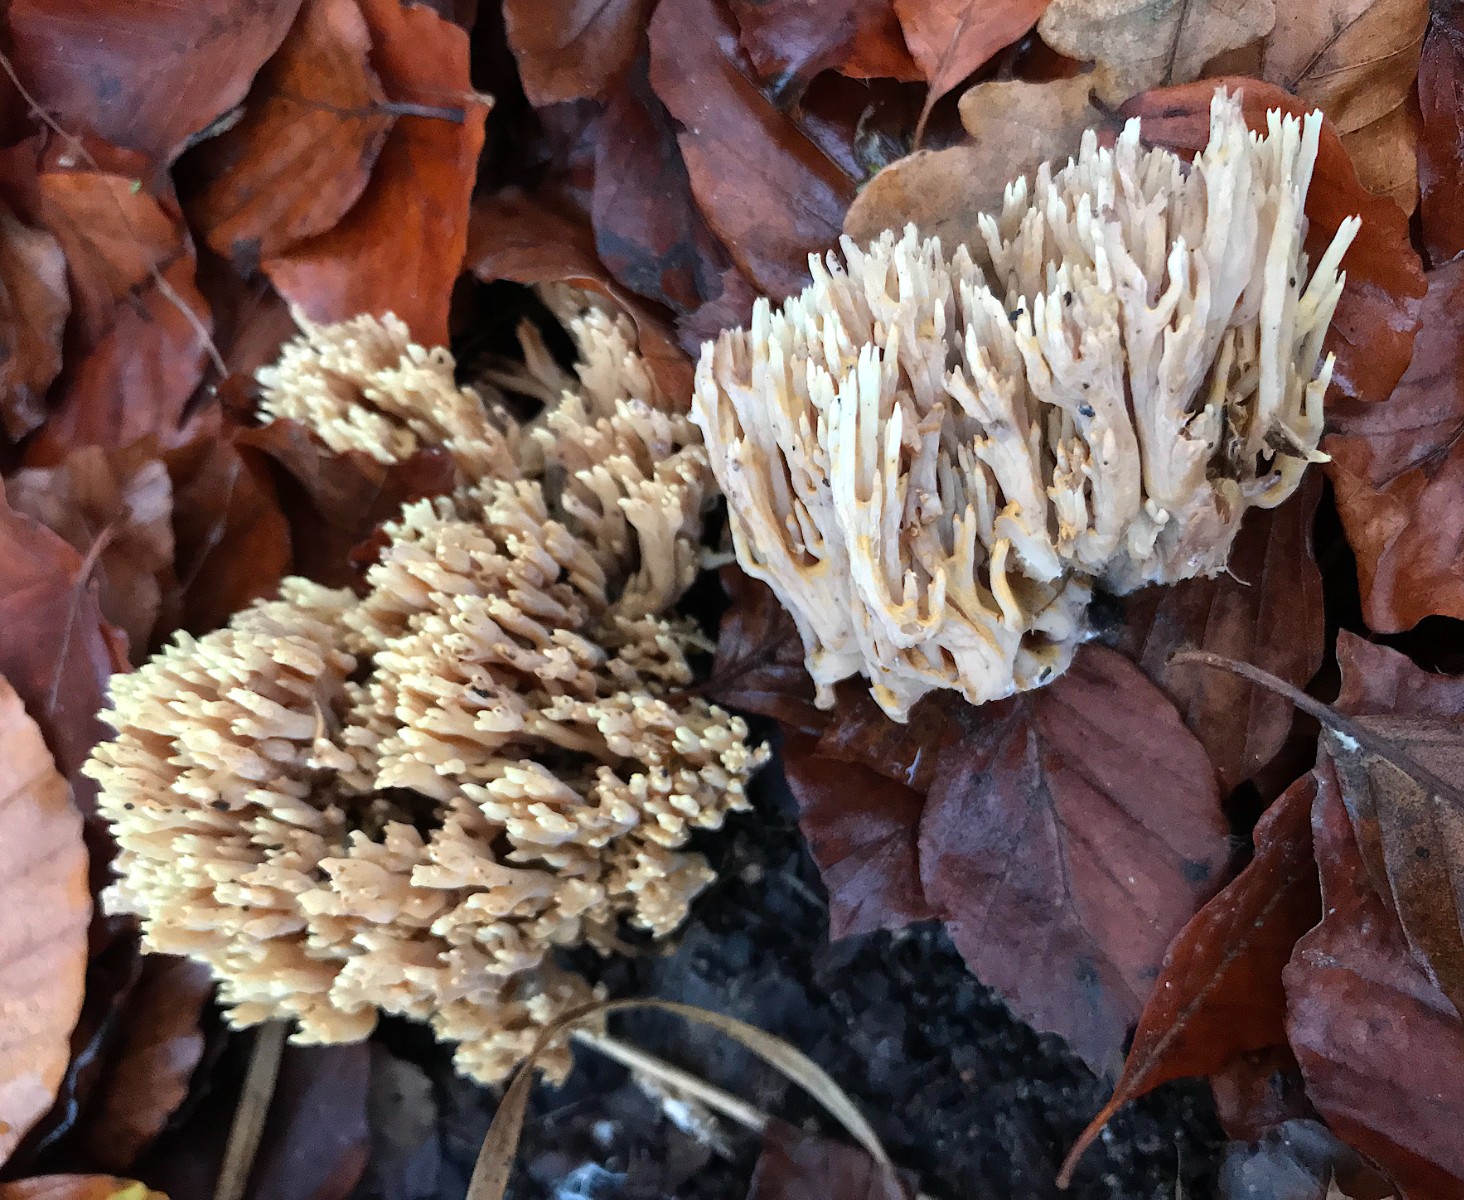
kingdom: Fungi
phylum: Basidiomycota
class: Agaricomycetes
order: Gomphales
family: Gomphaceae
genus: Ramaria
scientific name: Ramaria stricta
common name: rank koralsvamp
